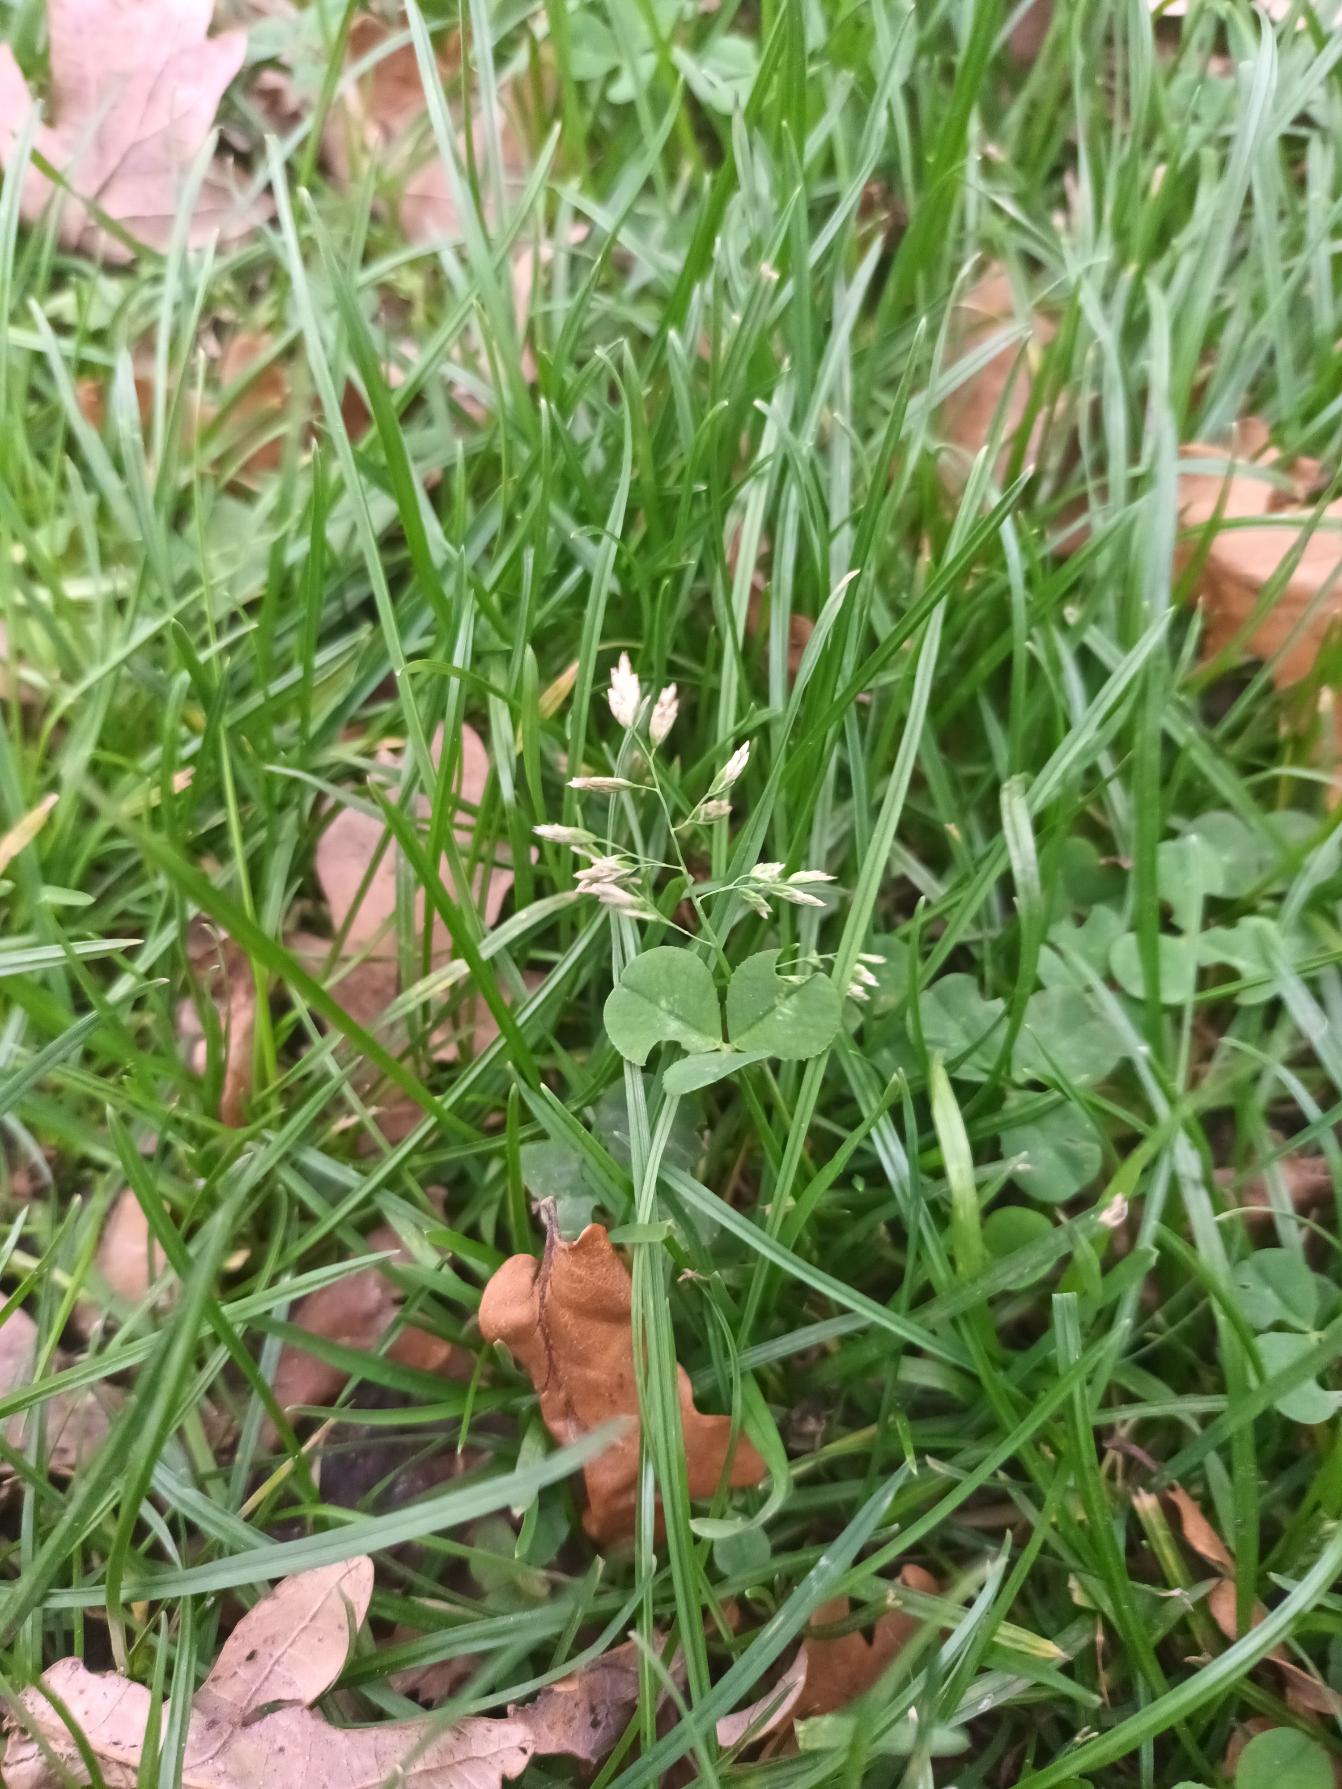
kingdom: Plantae
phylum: Tracheophyta
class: Liliopsida
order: Poales
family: Poaceae
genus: Poa
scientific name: Poa annua
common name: Enårig rapgræs
